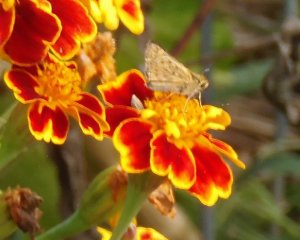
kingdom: Animalia
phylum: Arthropoda
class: Insecta
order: Lepidoptera
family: Hesperiidae
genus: Hylephila
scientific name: Hylephila phyleus
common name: Fiery Skipper
